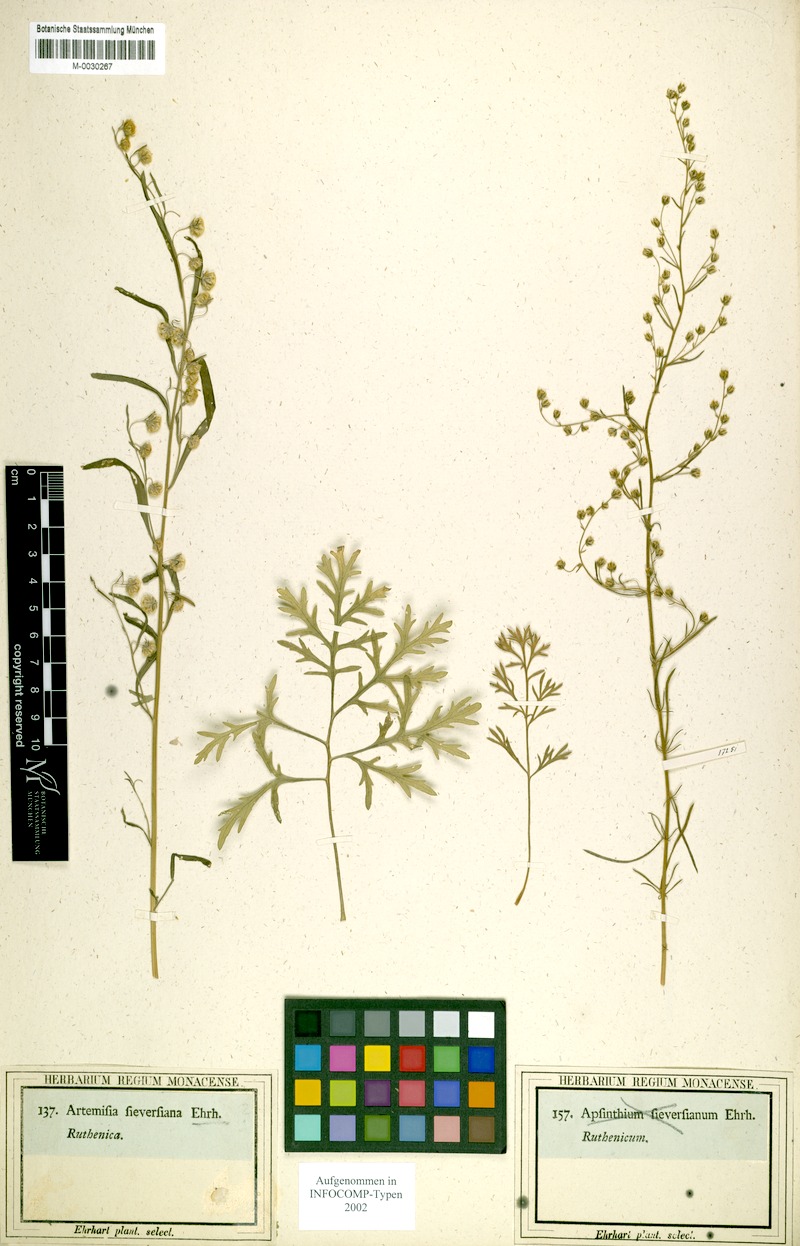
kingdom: Plantae
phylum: Tracheophyta
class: Magnoliopsida
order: Asterales
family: Asteraceae
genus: Artemisia
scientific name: Artemisia sieversiana
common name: Sieversian wormwood
